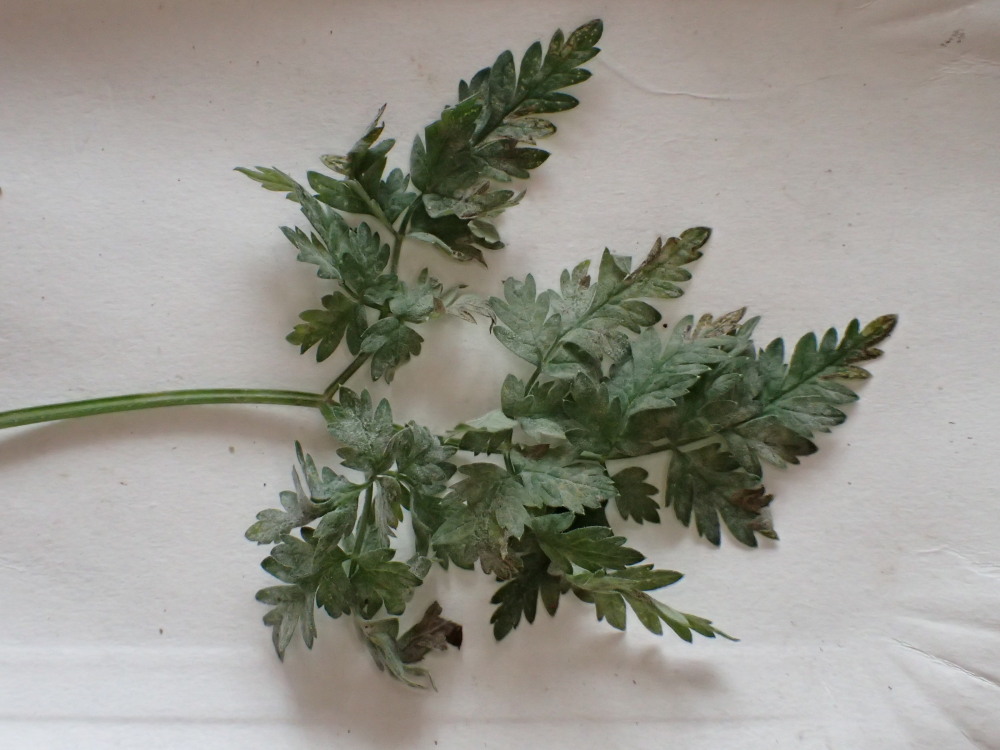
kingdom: Fungi
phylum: Ascomycota
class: Leotiomycetes
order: Helotiales
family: Erysiphaceae
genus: Erysiphe
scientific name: Erysiphe heraclei
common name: skærmplante-meldug
